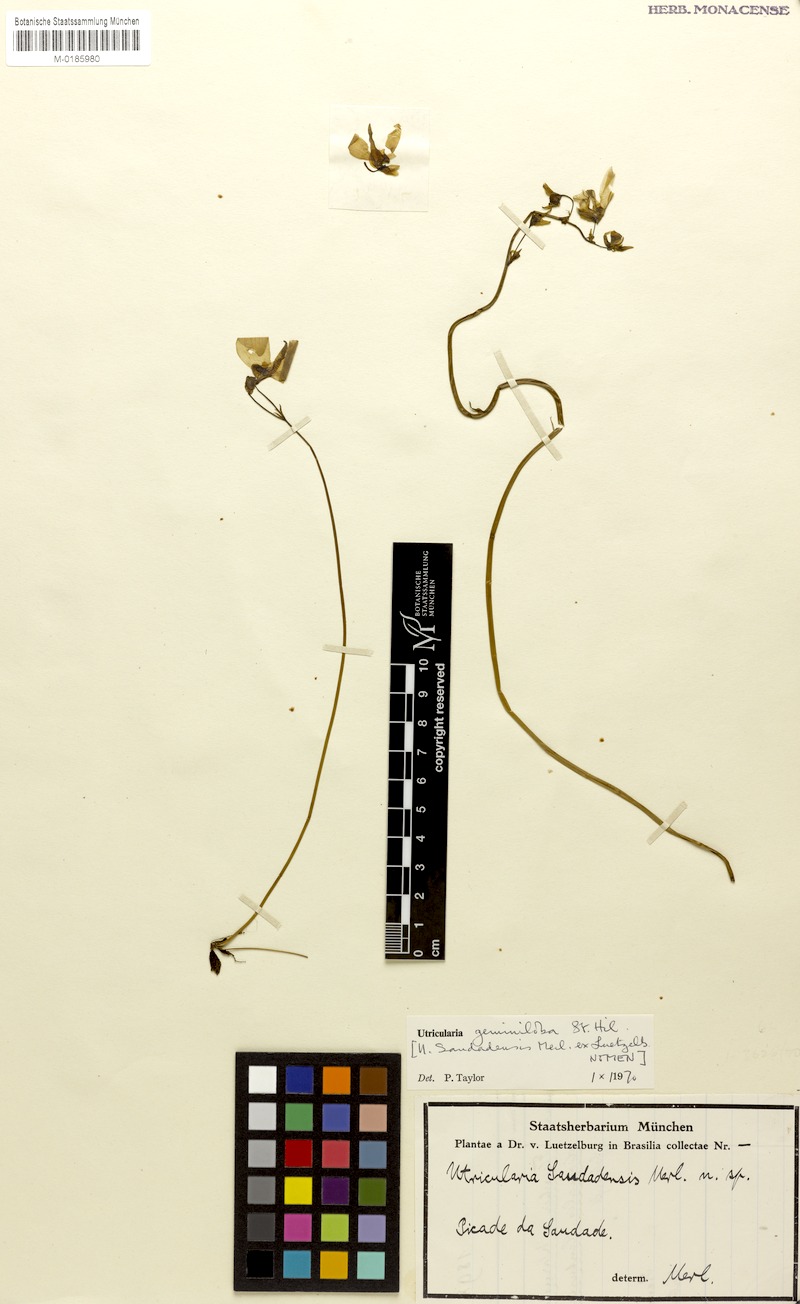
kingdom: Plantae
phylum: Tracheophyta
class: Magnoliopsida
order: Lamiales
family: Lentibulariaceae
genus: Utricularia
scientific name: Utricularia geminiloba
